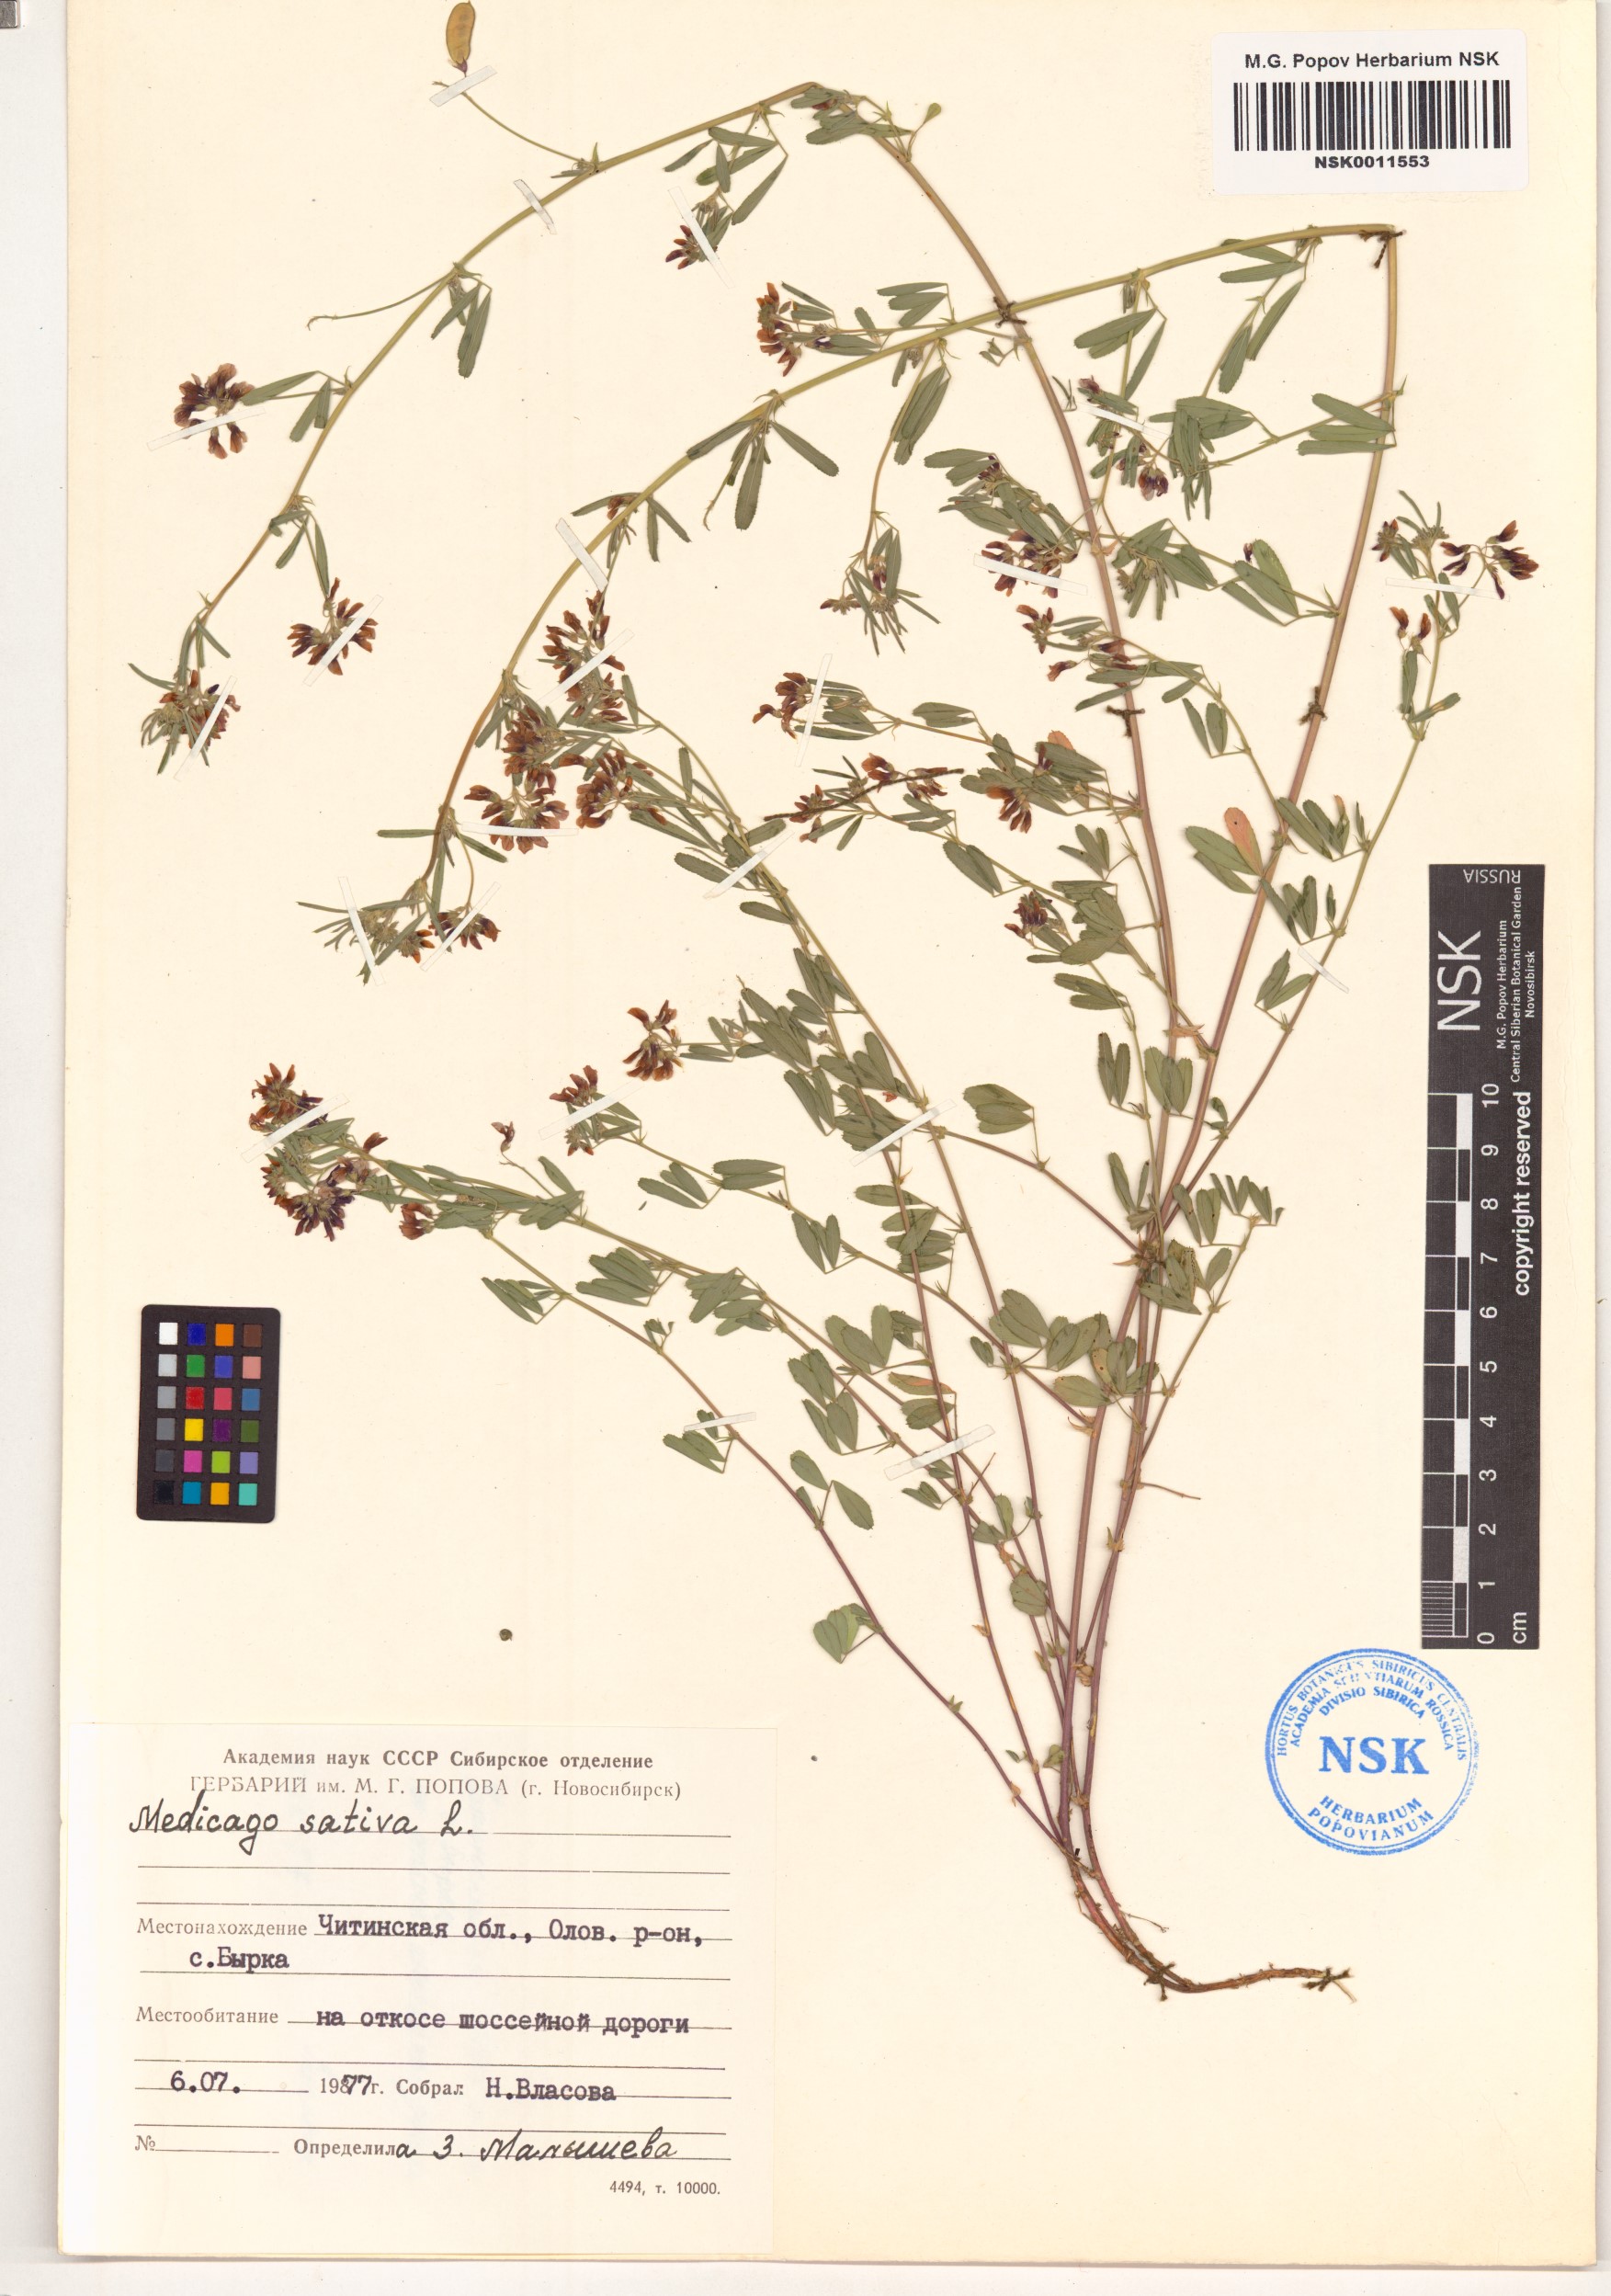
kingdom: Plantae
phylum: Tracheophyta
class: Magnoliopsida
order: Fabales
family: Fabaceae
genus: Medicago
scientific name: Medicago sativa
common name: Alfalfa
